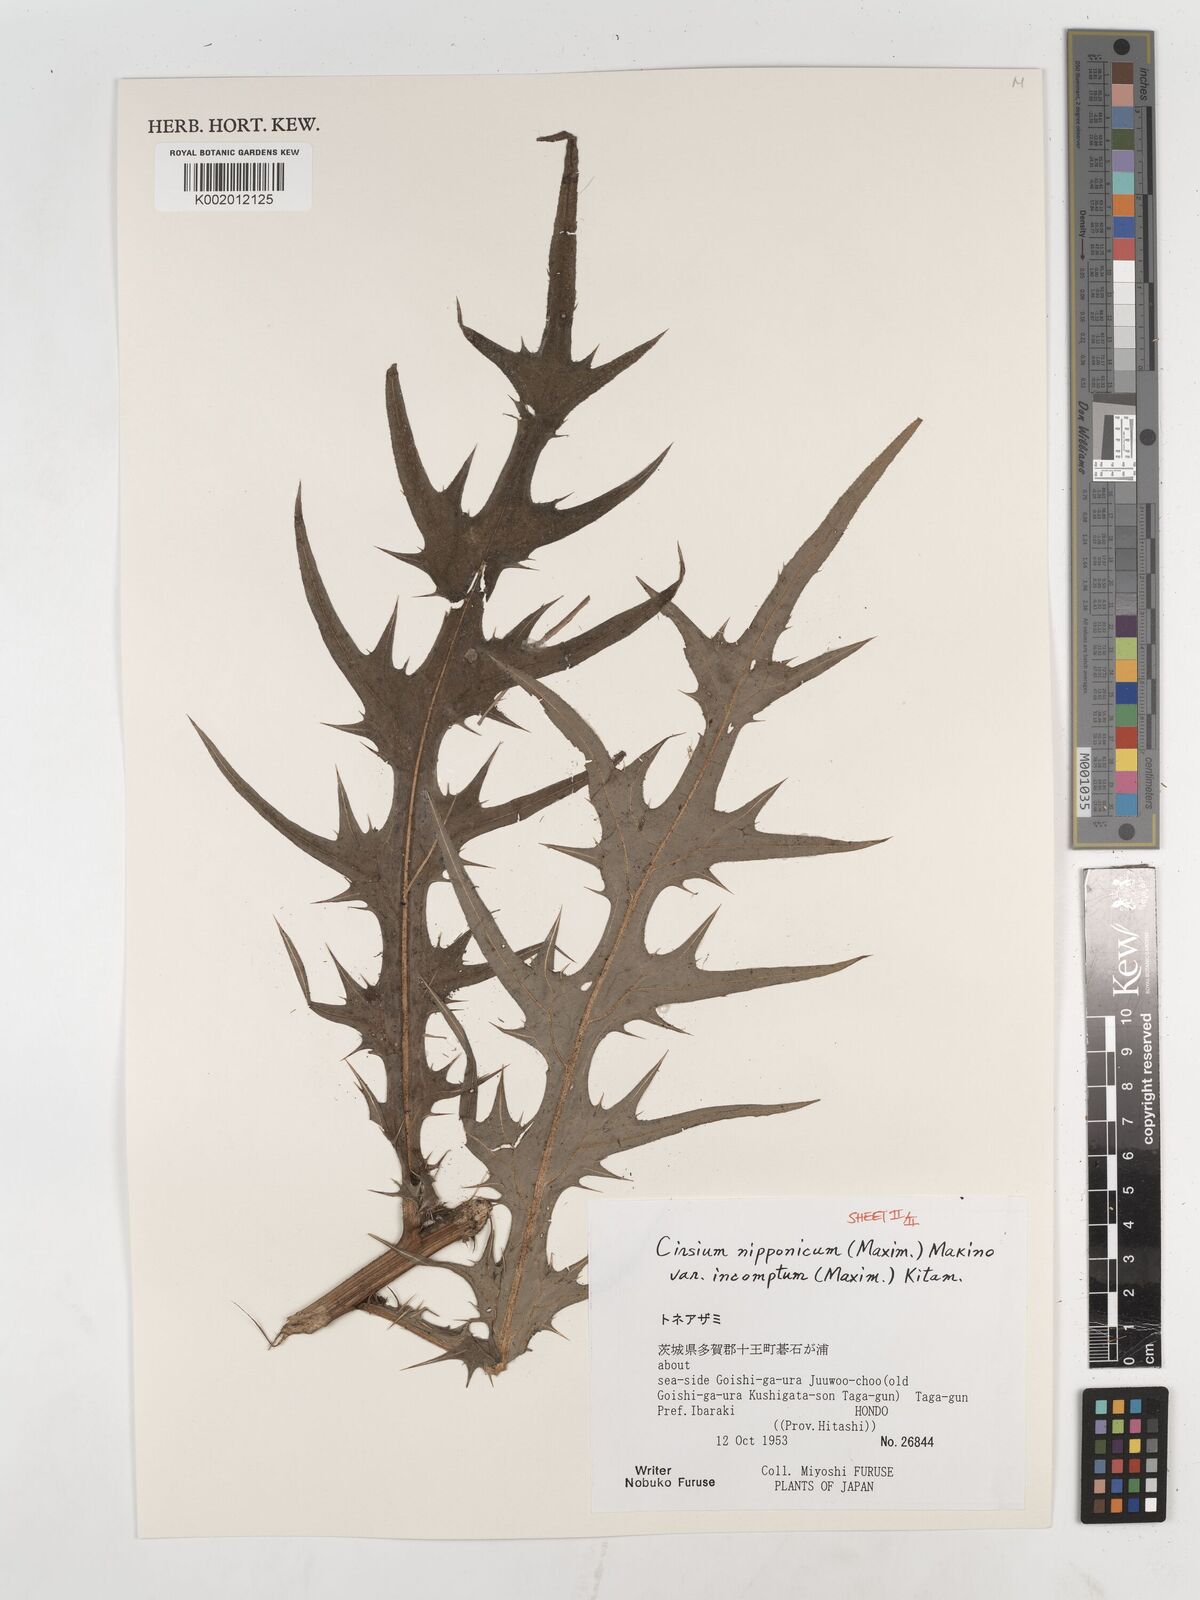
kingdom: Plantae
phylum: Tracheophyta
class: Magnoliopsida
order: Asterales
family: Asteraceae
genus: Cirsium
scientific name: Cirsium nipponicum
